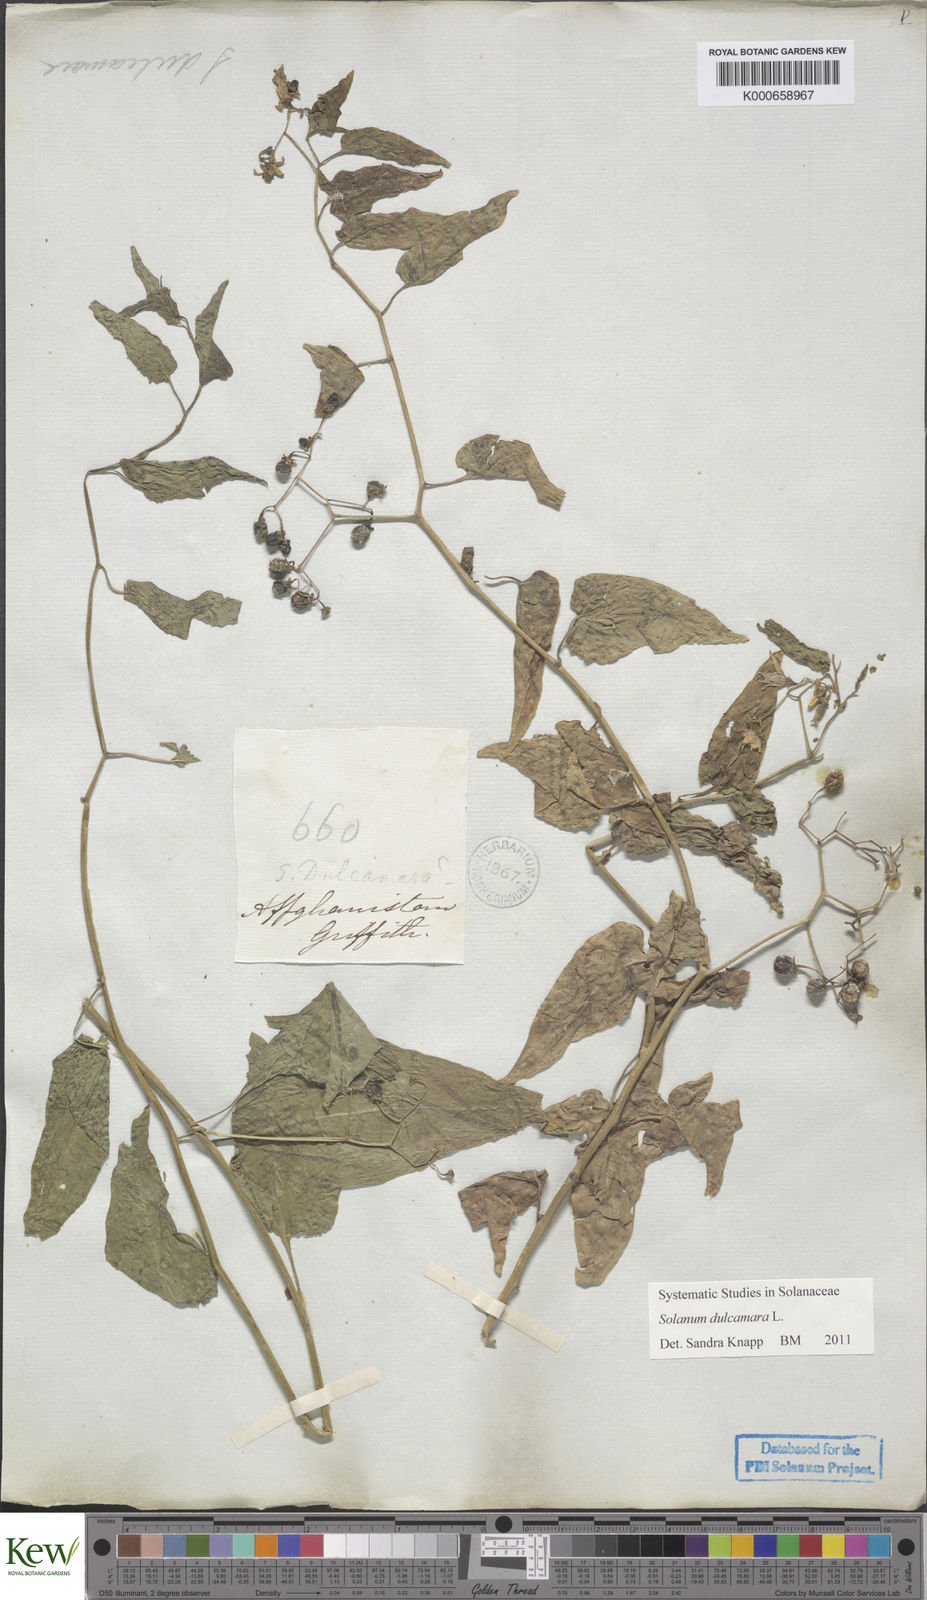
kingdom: Plantae
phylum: Tracheophyta
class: Magnoliopsida
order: Solanales
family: Solanaceae
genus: Solanum
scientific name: Solanum dulcamara
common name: Climbing nightshade
